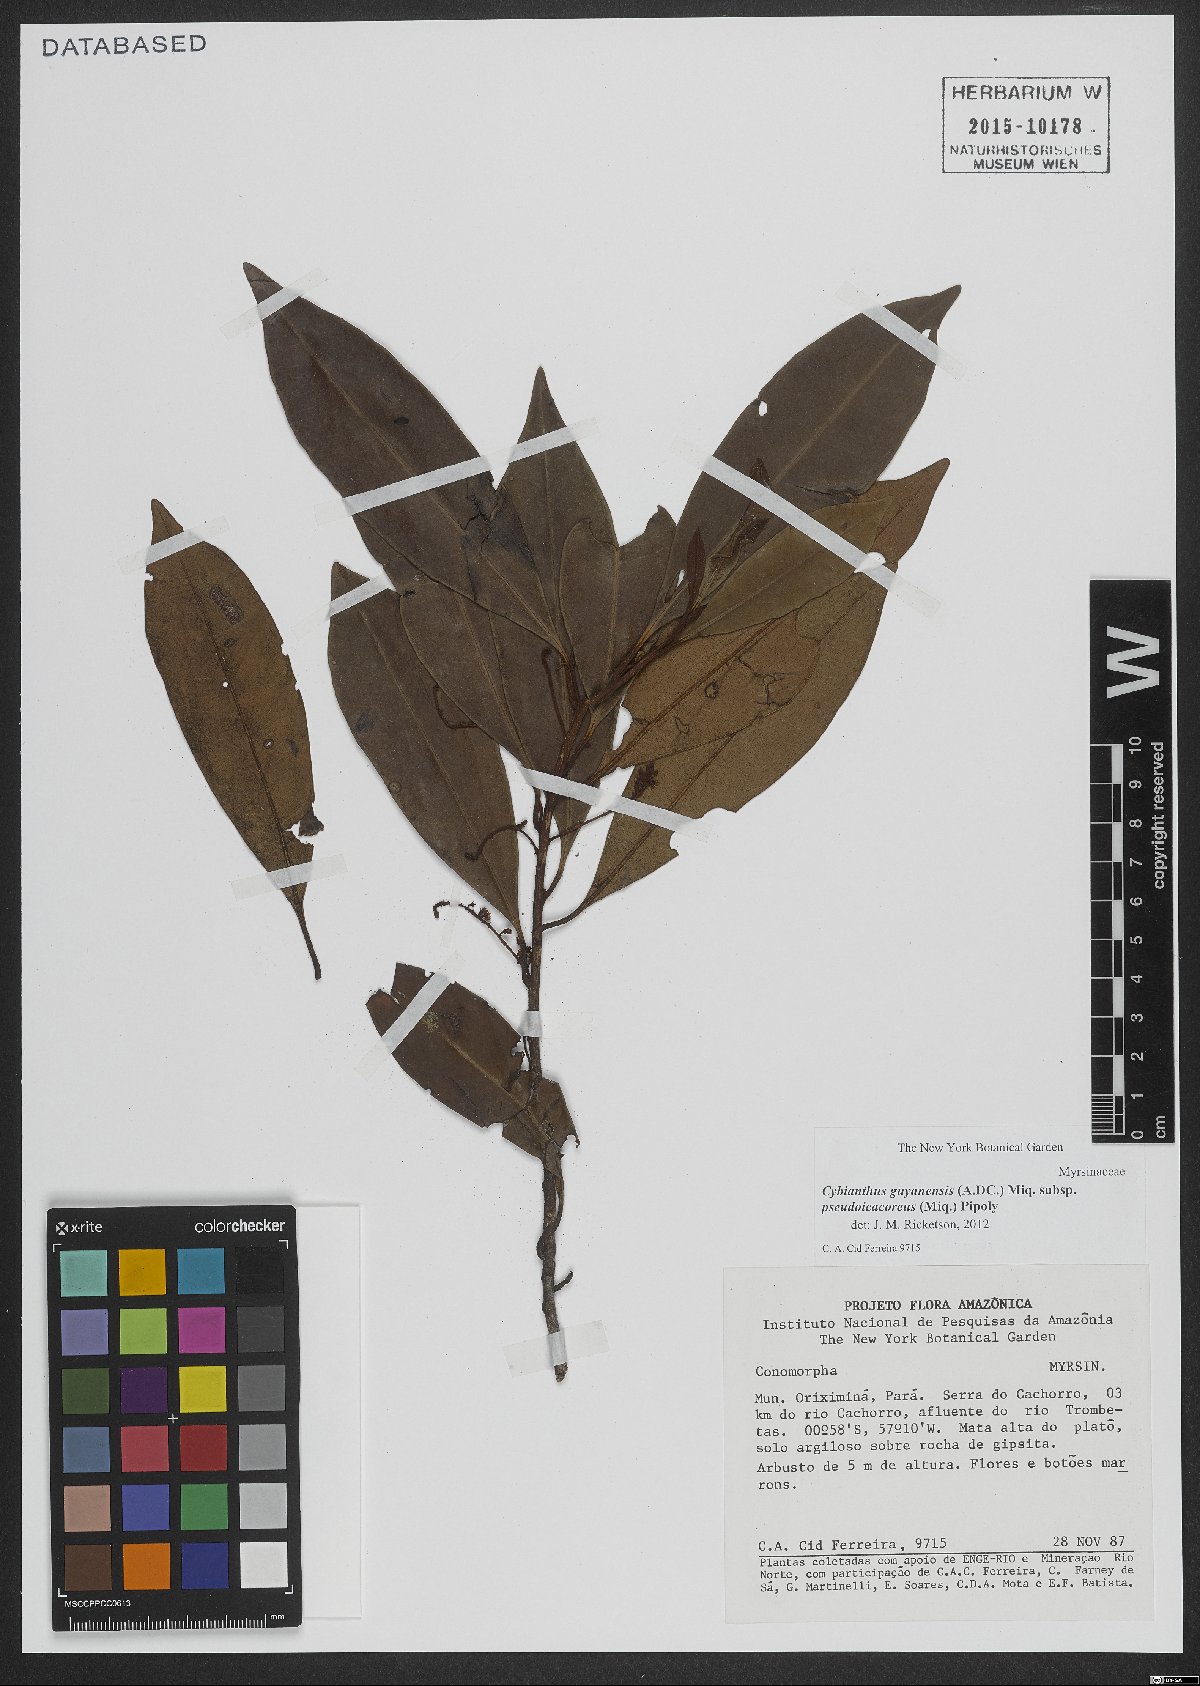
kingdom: Plantae
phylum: Tracheophyta
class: Magnoliopsida
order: Ericales
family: Primulaceae
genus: Cybianthus
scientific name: Cybianthus guyanensis
